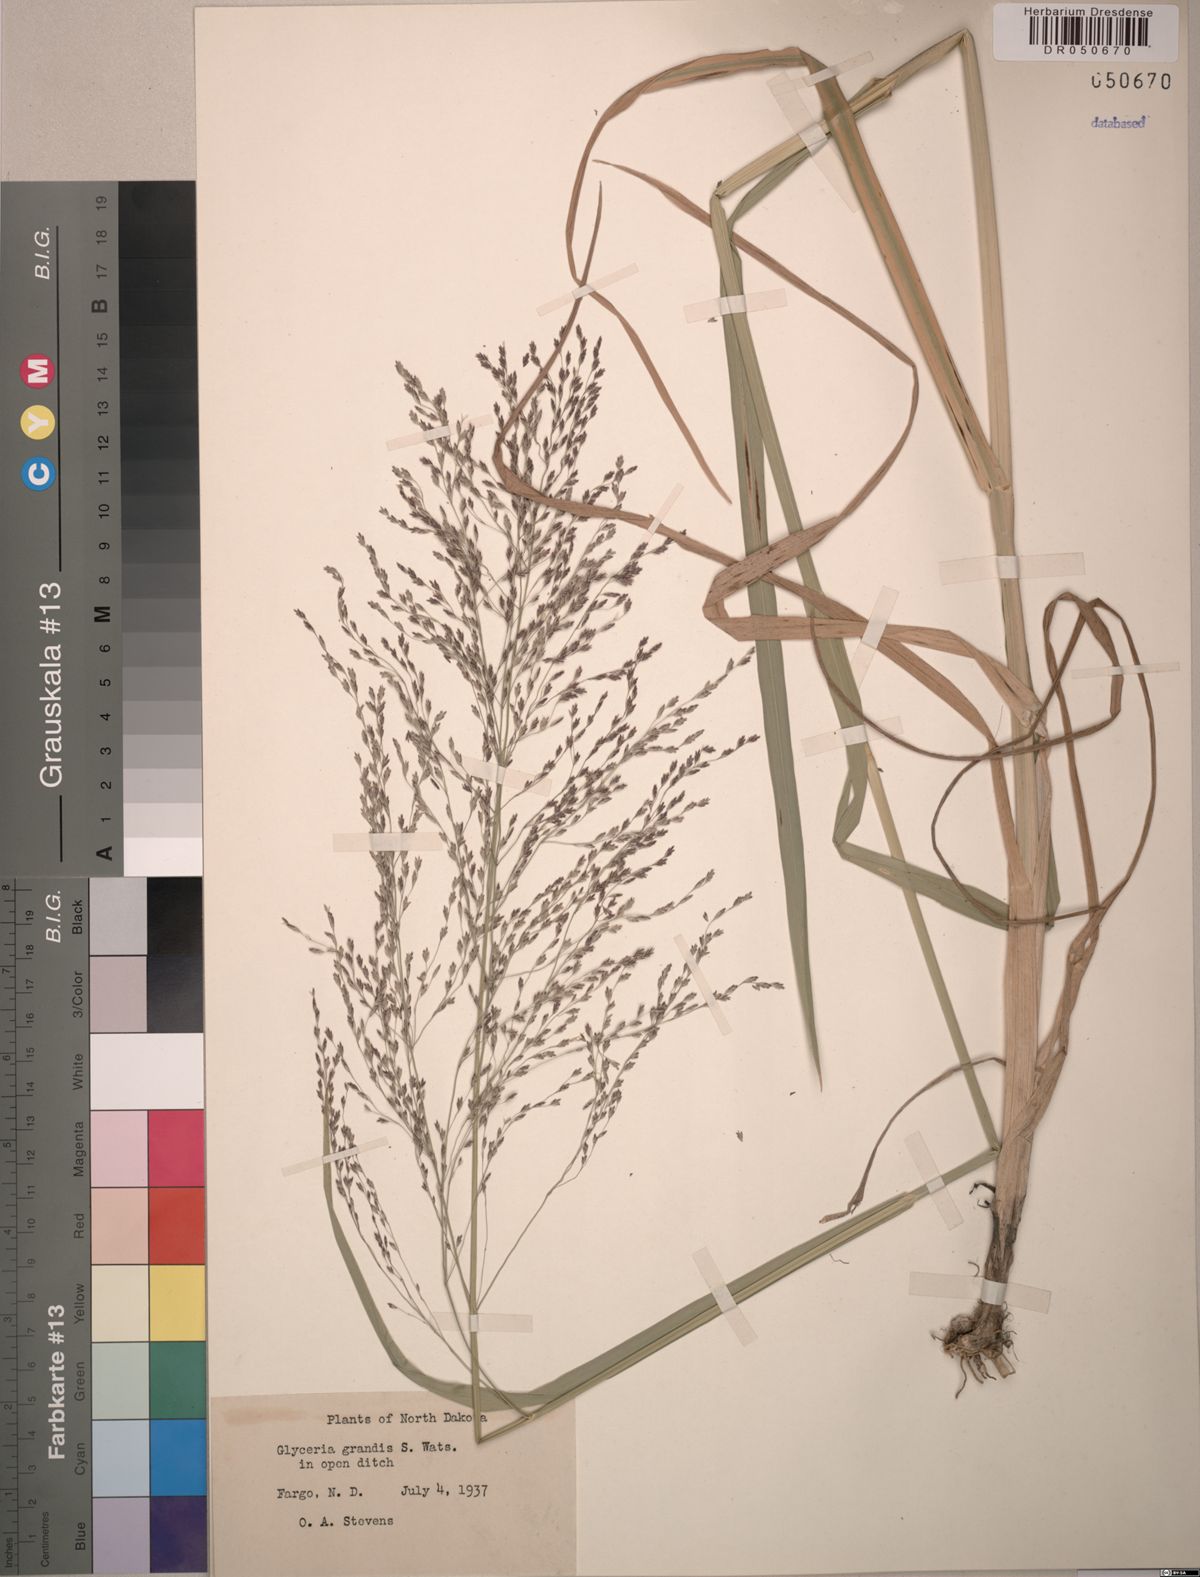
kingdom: Plantae
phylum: Tracheophyta
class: Liliopsida
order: Poales
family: Poaceae
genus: Glyceria
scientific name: Glyceria grandis
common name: American glyceria
